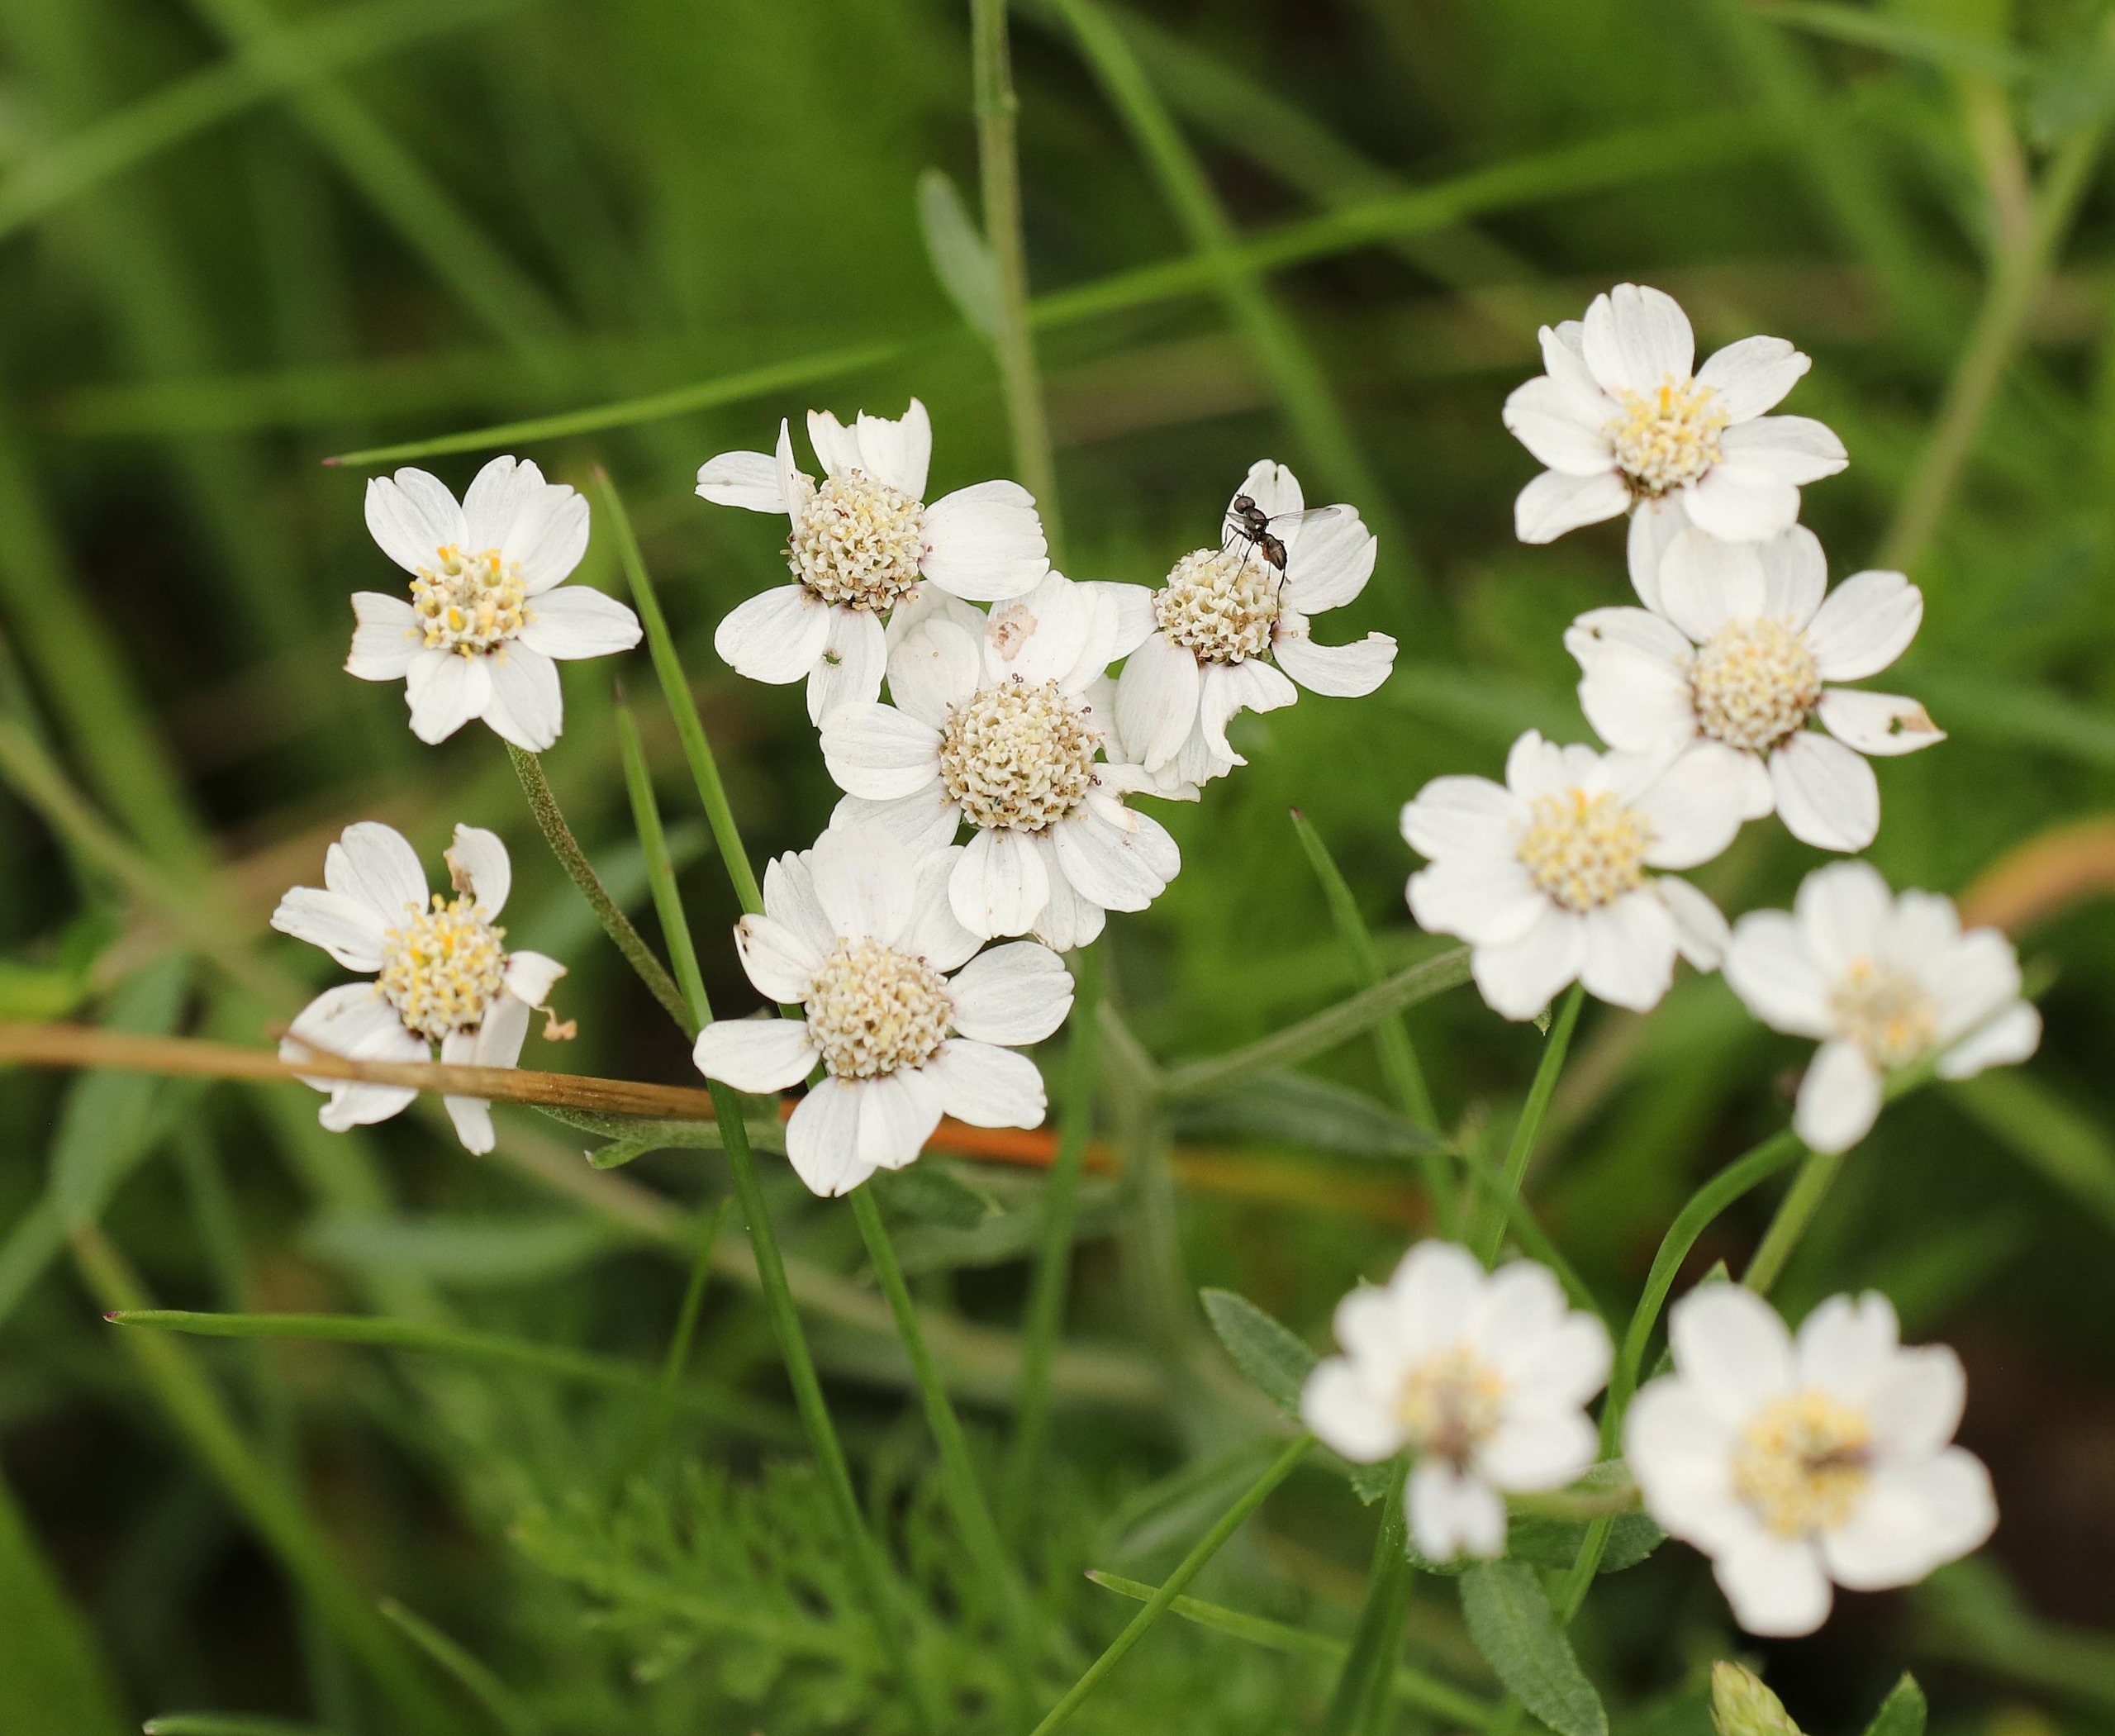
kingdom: Plantae
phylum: Tracheophyta
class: Magnoliopsida
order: Asterales
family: Asteraceae
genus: Achillea
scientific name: Achillea ptarmica
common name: Nyse-røllike
